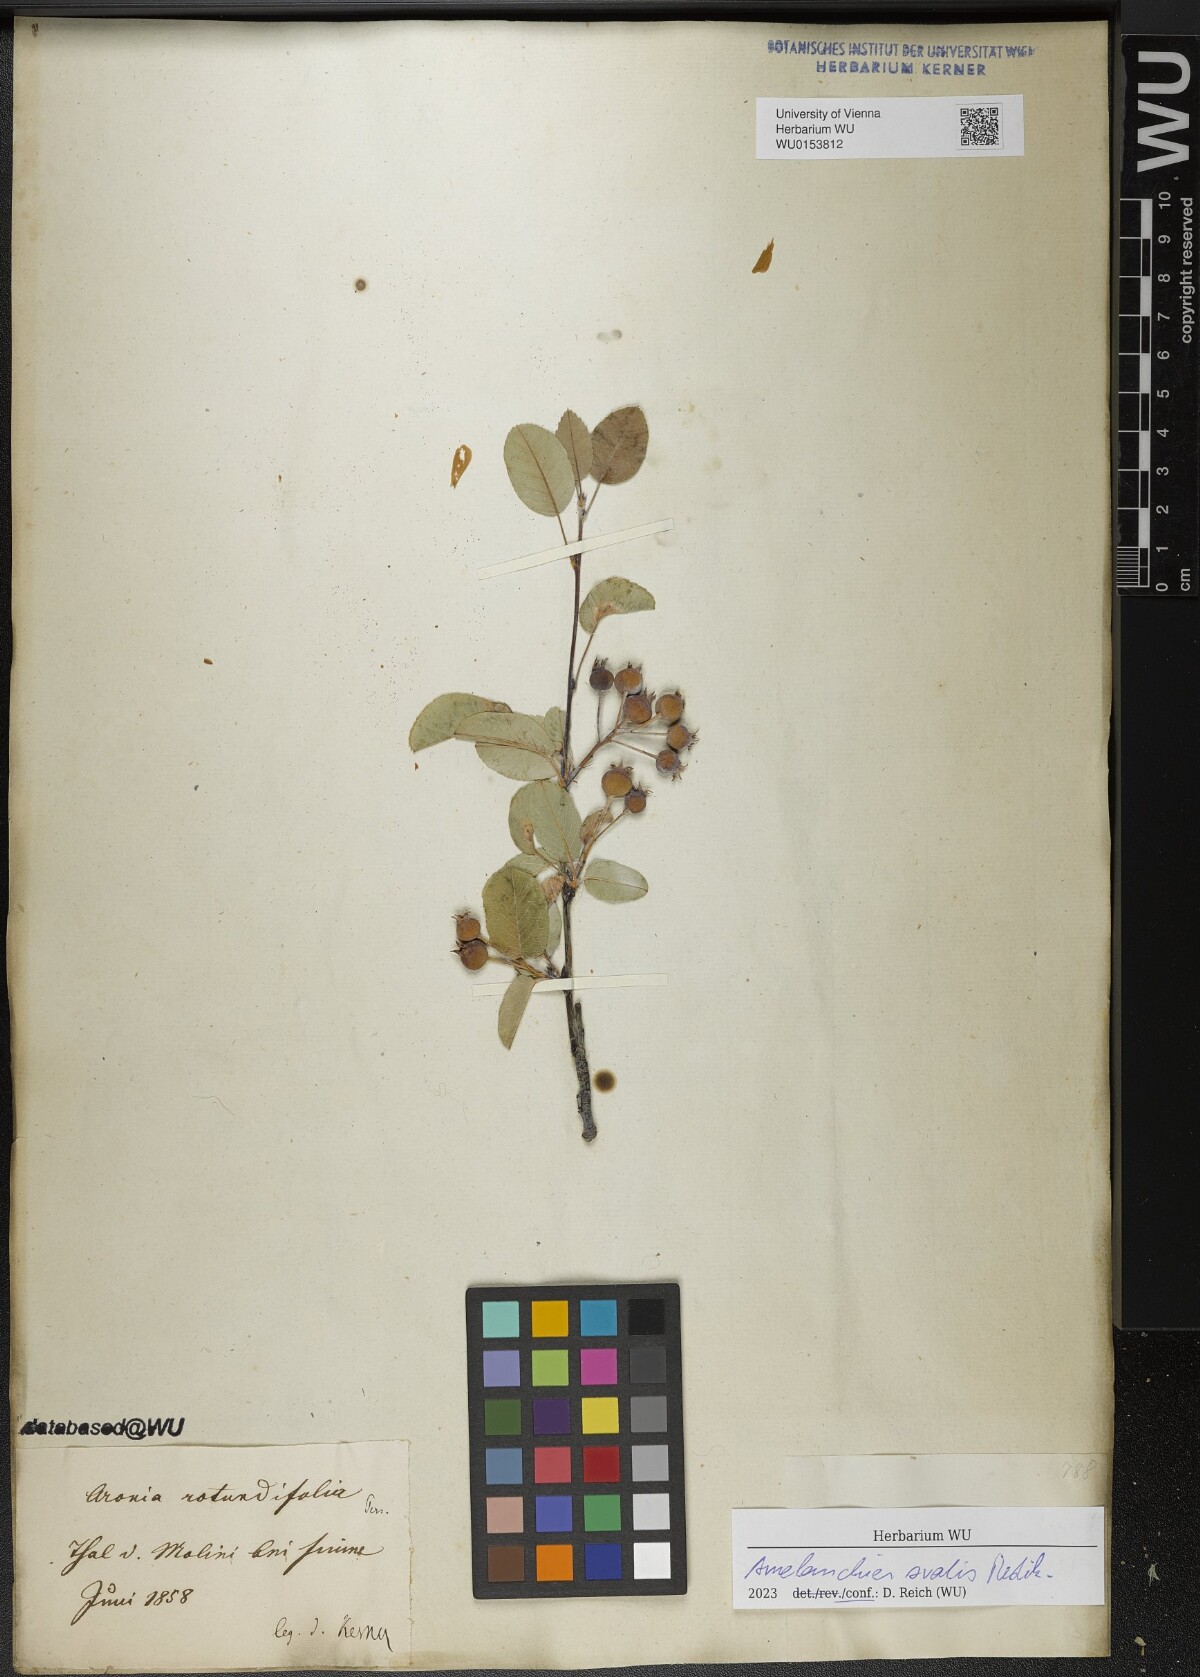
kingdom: Plantae
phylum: Tracheophyta
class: Magnoliopsida
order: Rosales
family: Rosaceae
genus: Amelanchier
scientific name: Amelanchier ovalis
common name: Serviceberry
